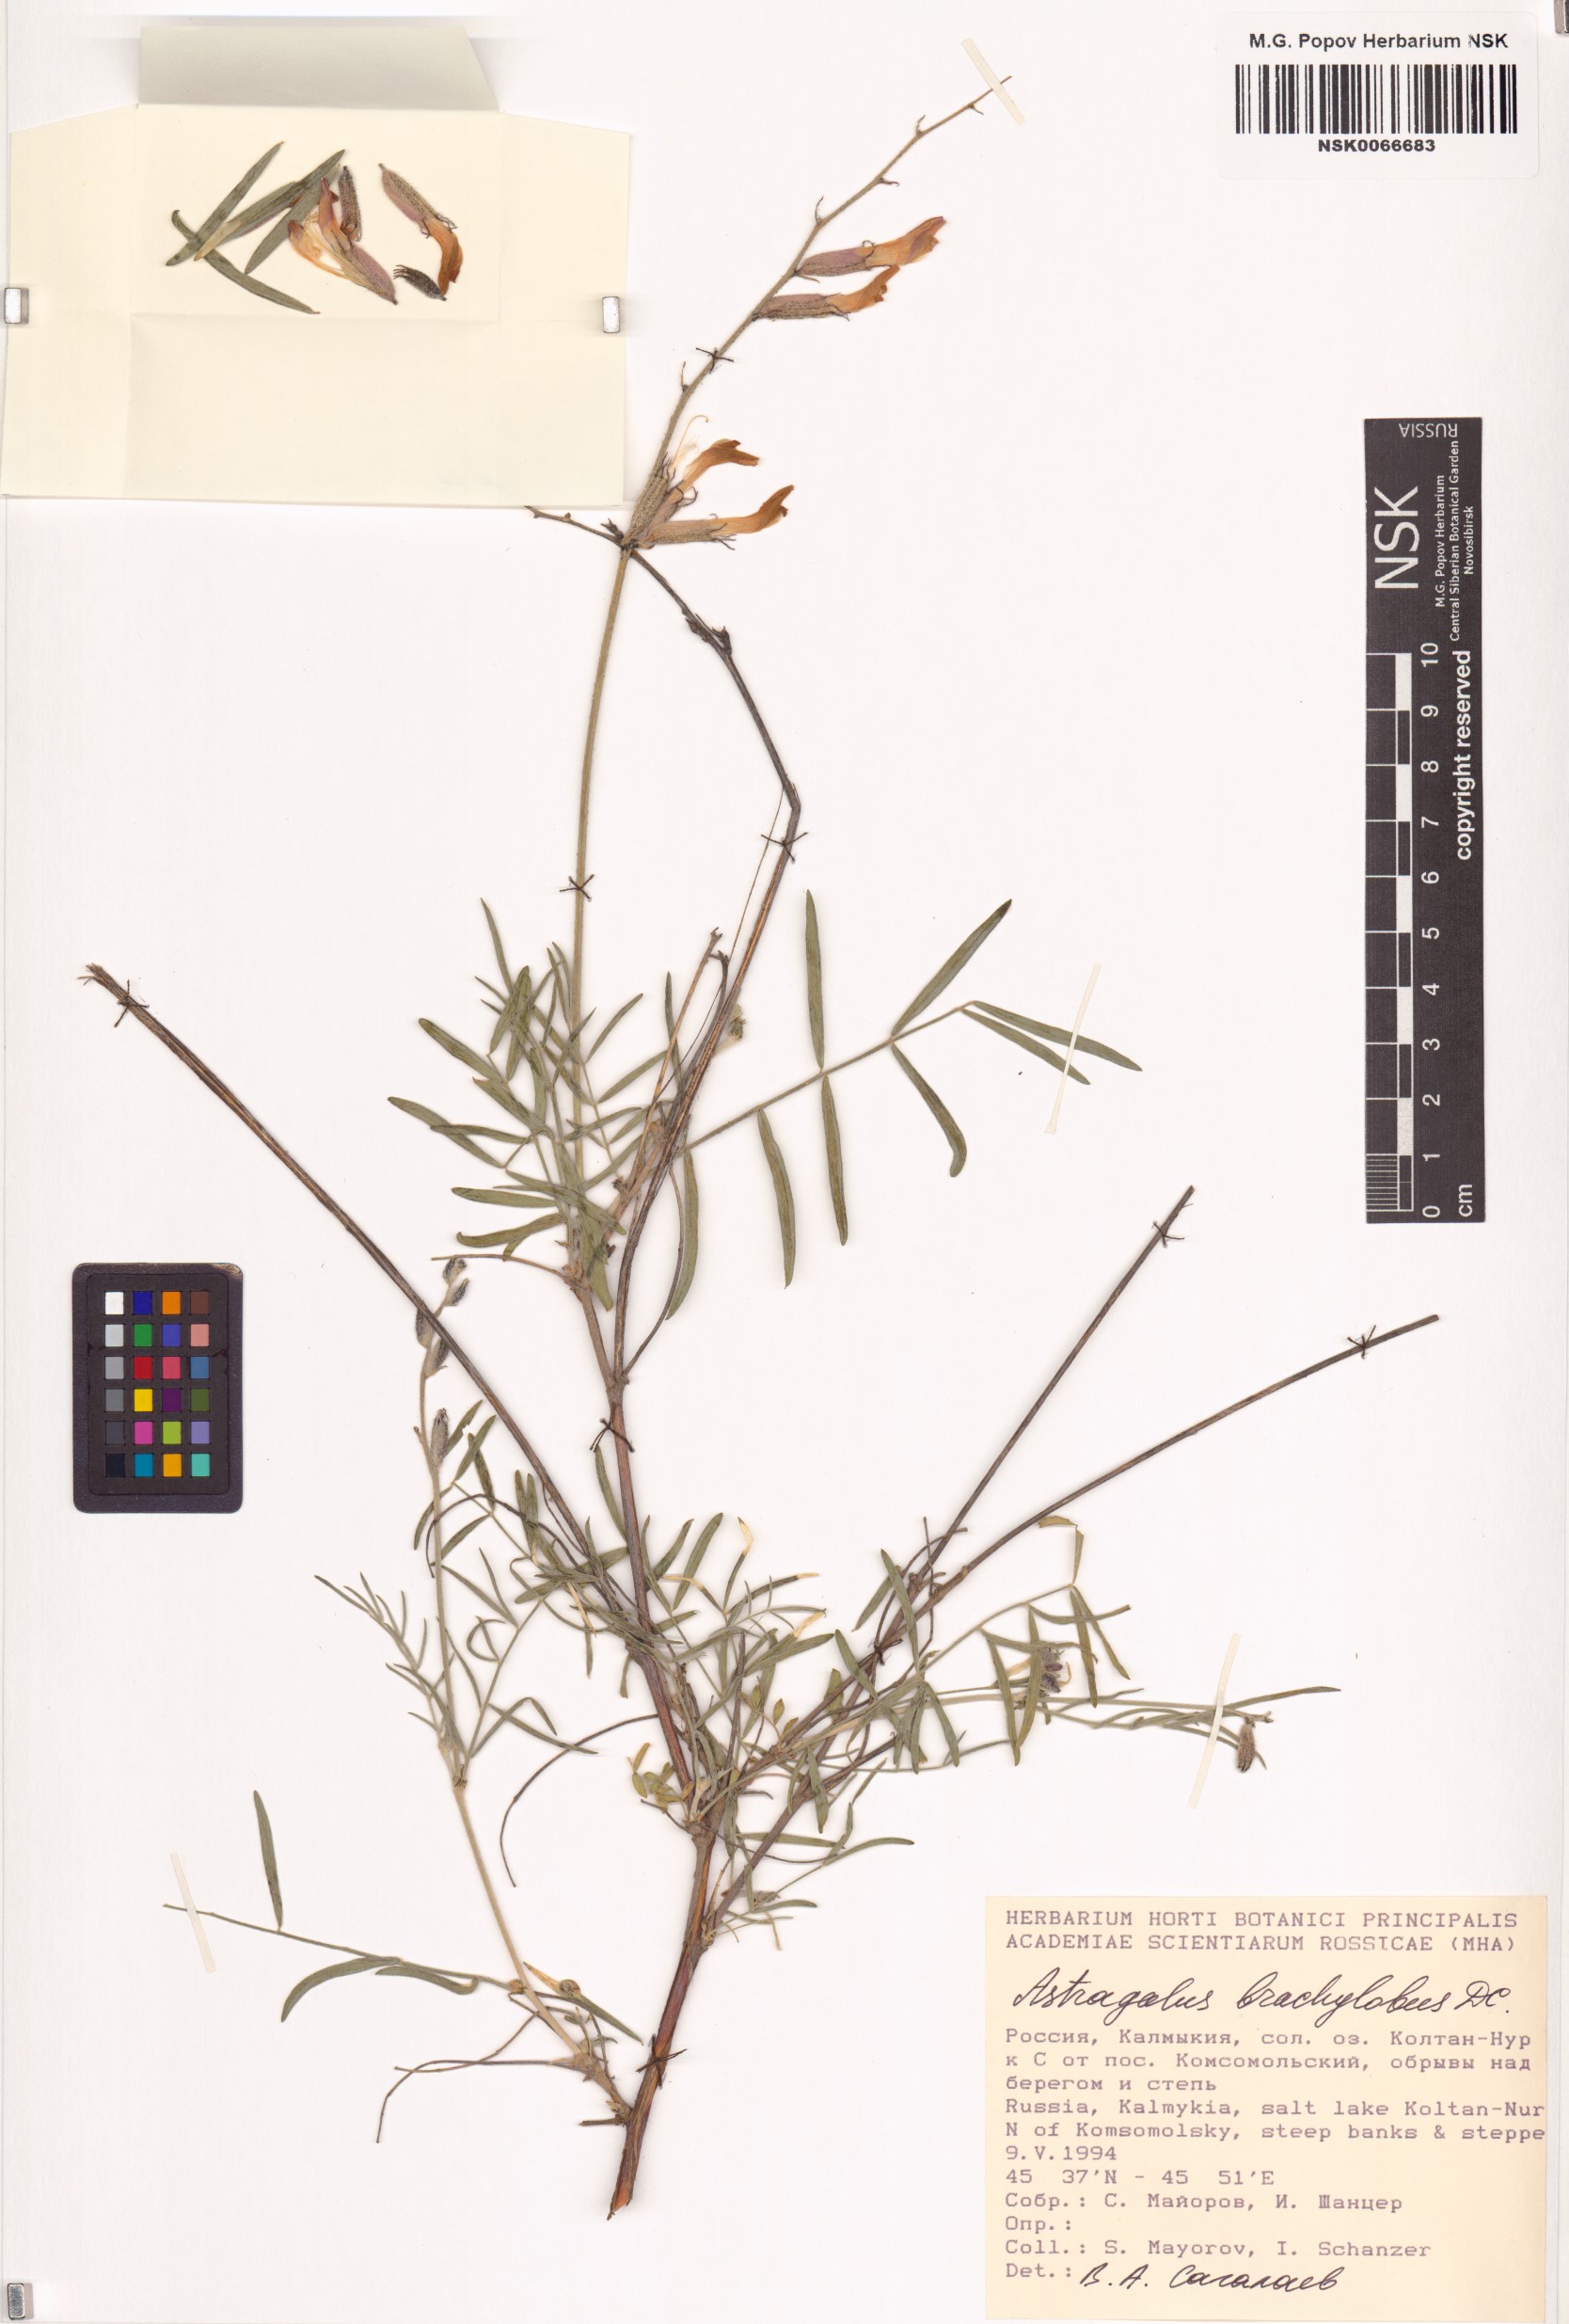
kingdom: Plantae
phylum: Tracheophyta
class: Magnoliopsida
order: Fabales
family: Fabaceae
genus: Astragalus
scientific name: Astragalus brachylobus
